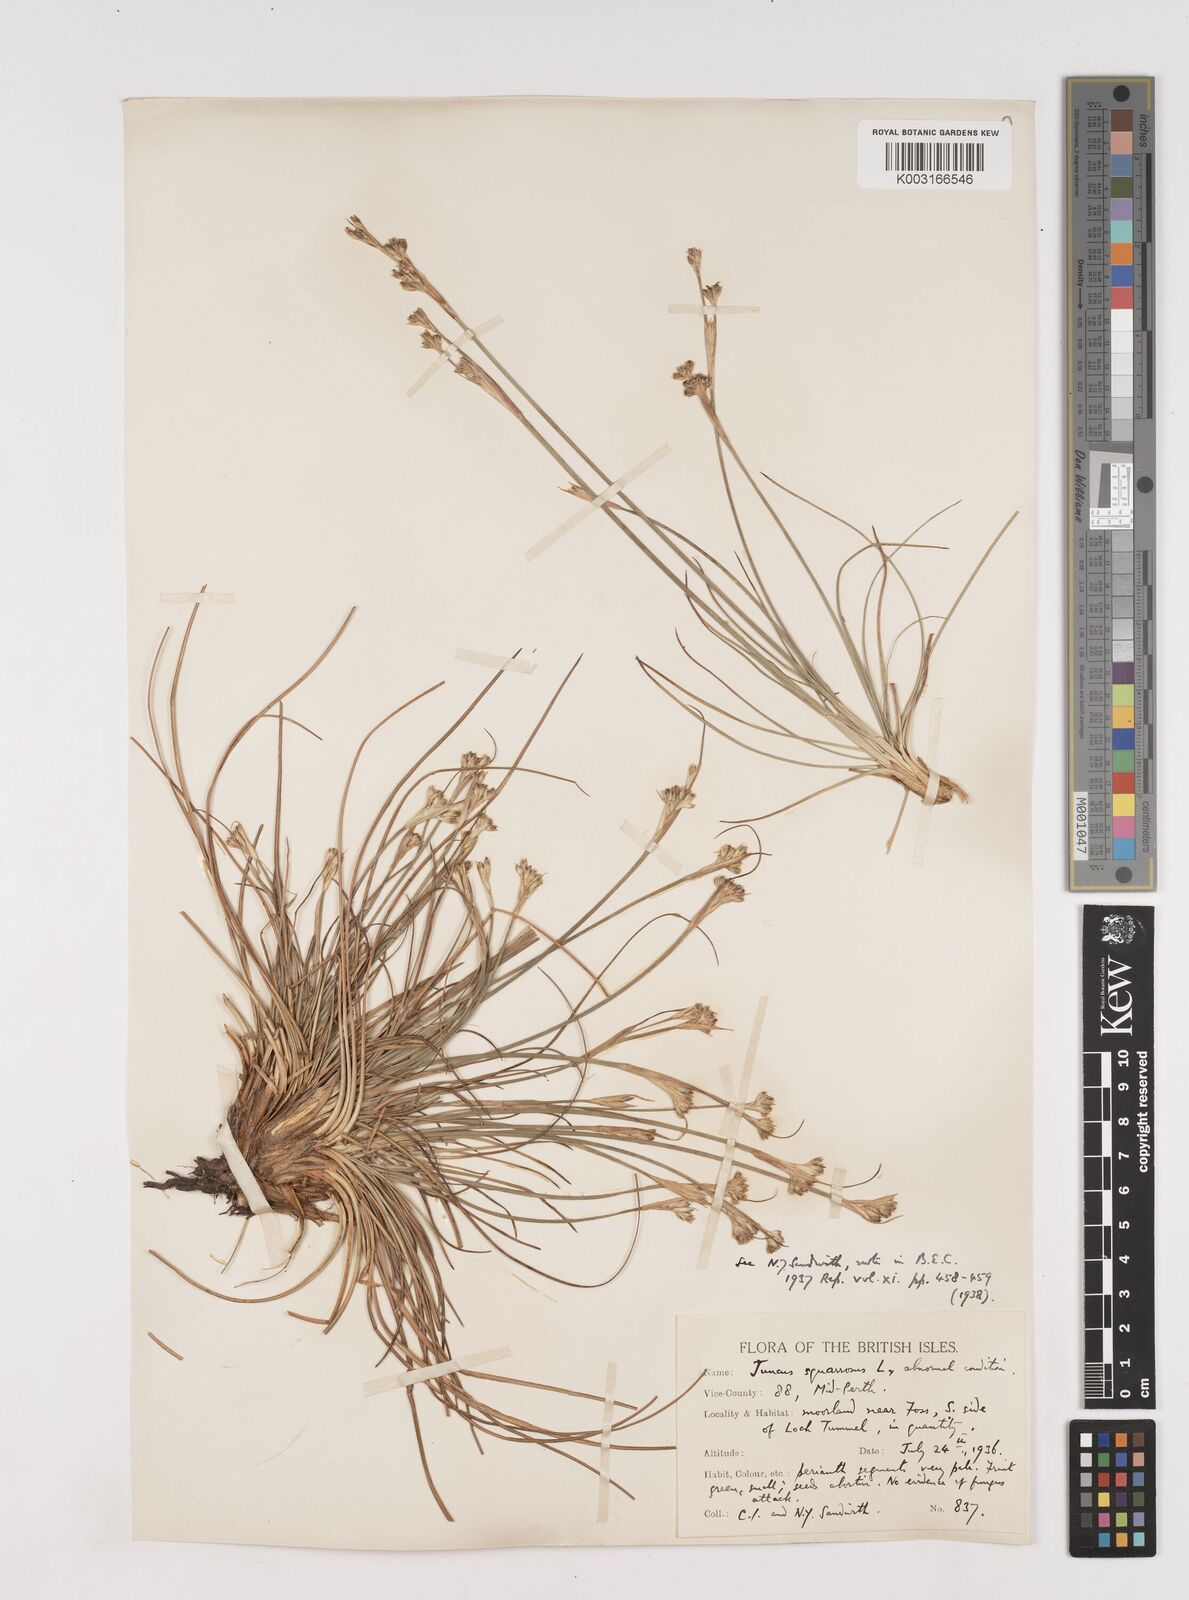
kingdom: Plantae
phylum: Tracheophyta
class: Liliopsida
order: Poales
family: Juncaceae
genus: Juncus
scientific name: Juncus squarrosus
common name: Heath rush
